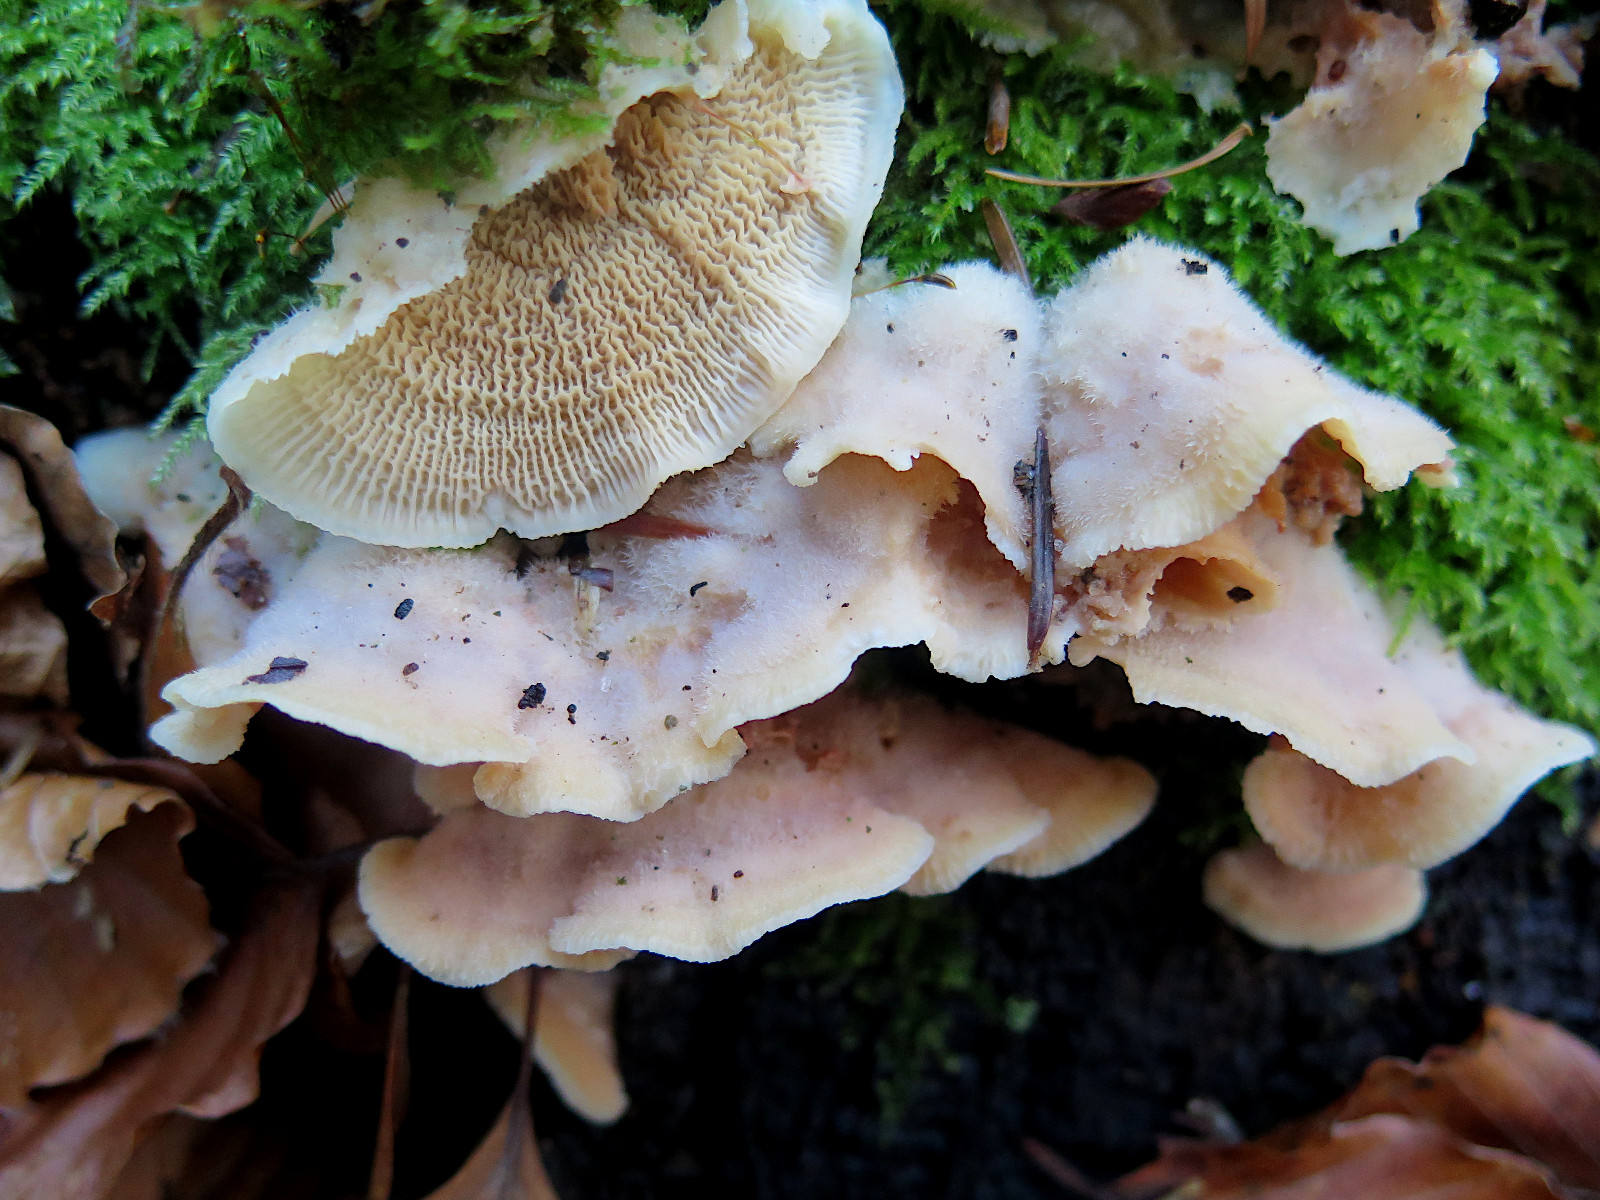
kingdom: Fungi
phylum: Basidiomycota
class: Agaricomycetes
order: Polyporales
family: Meruliaceae
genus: Phlebia
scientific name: Phlebia tremellosa
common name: bævrende åresvamp
